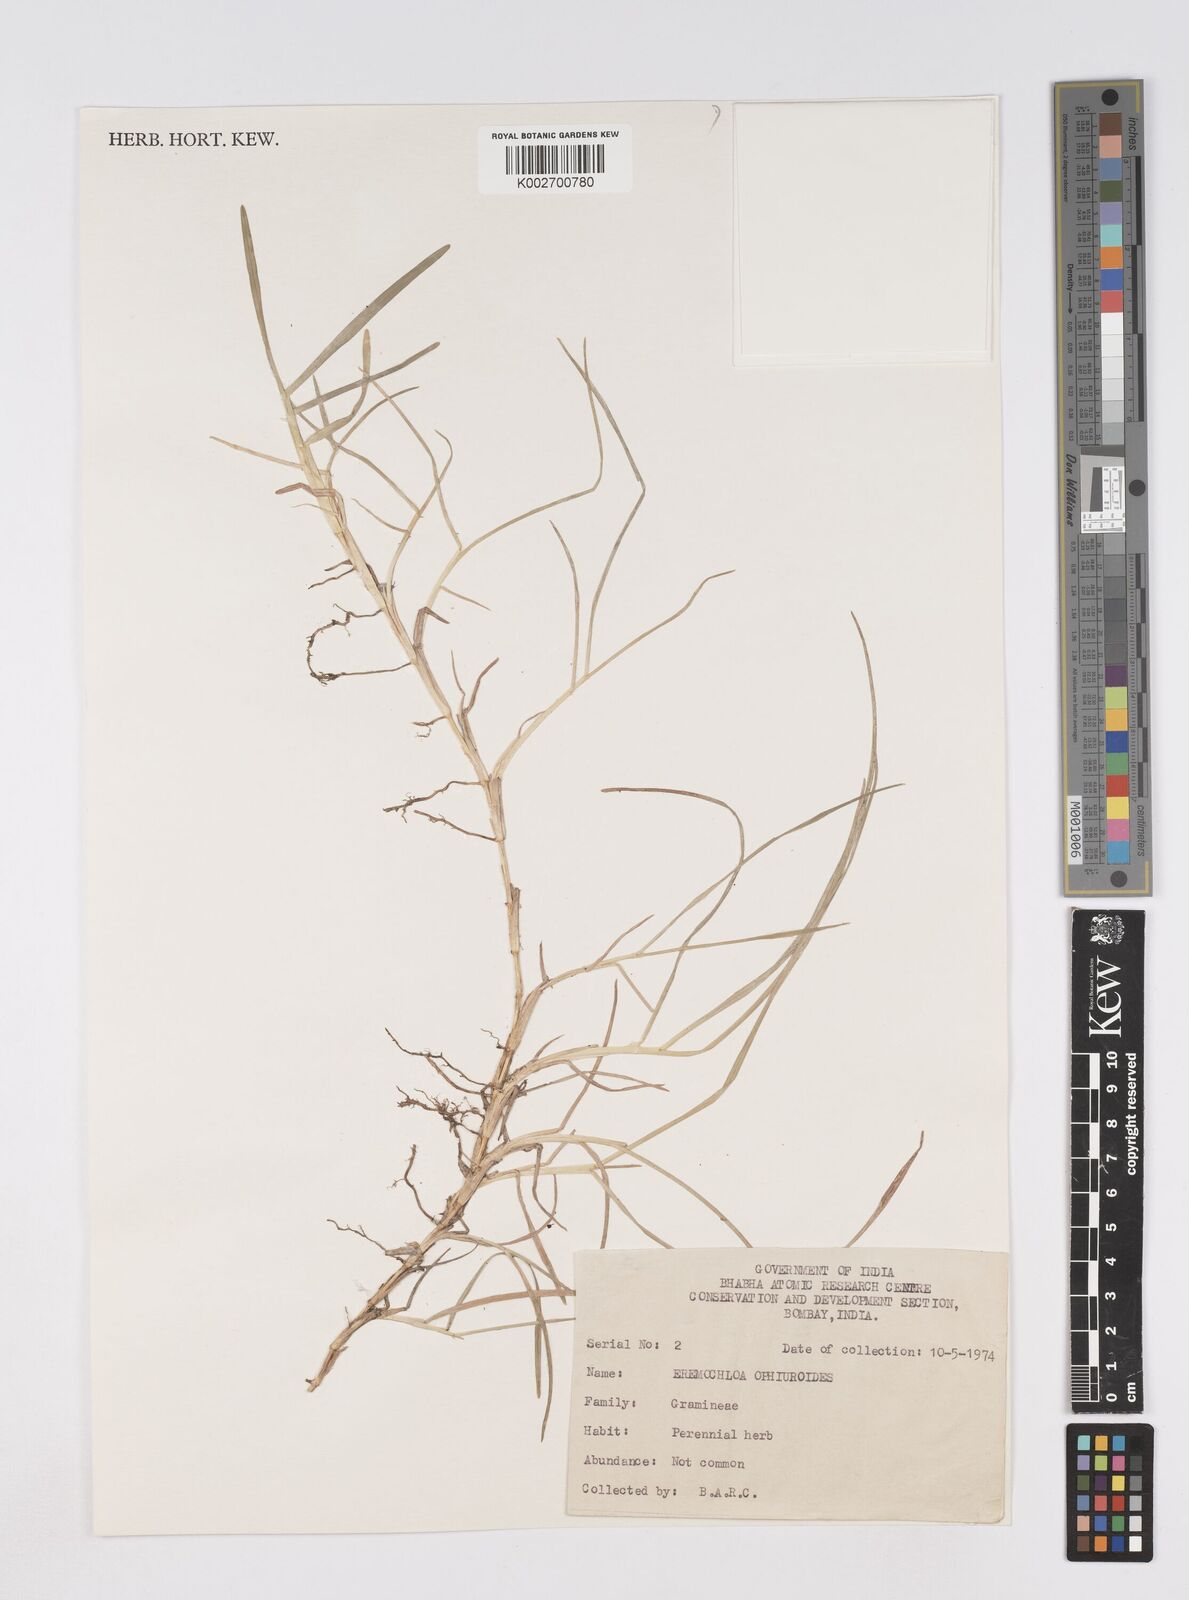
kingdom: Plantae
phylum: Tracheophyta
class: Liliopsida
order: Poales
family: Poaceae
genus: Eremochloa
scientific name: Eremochloa ophiuroides
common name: Centipede grass
